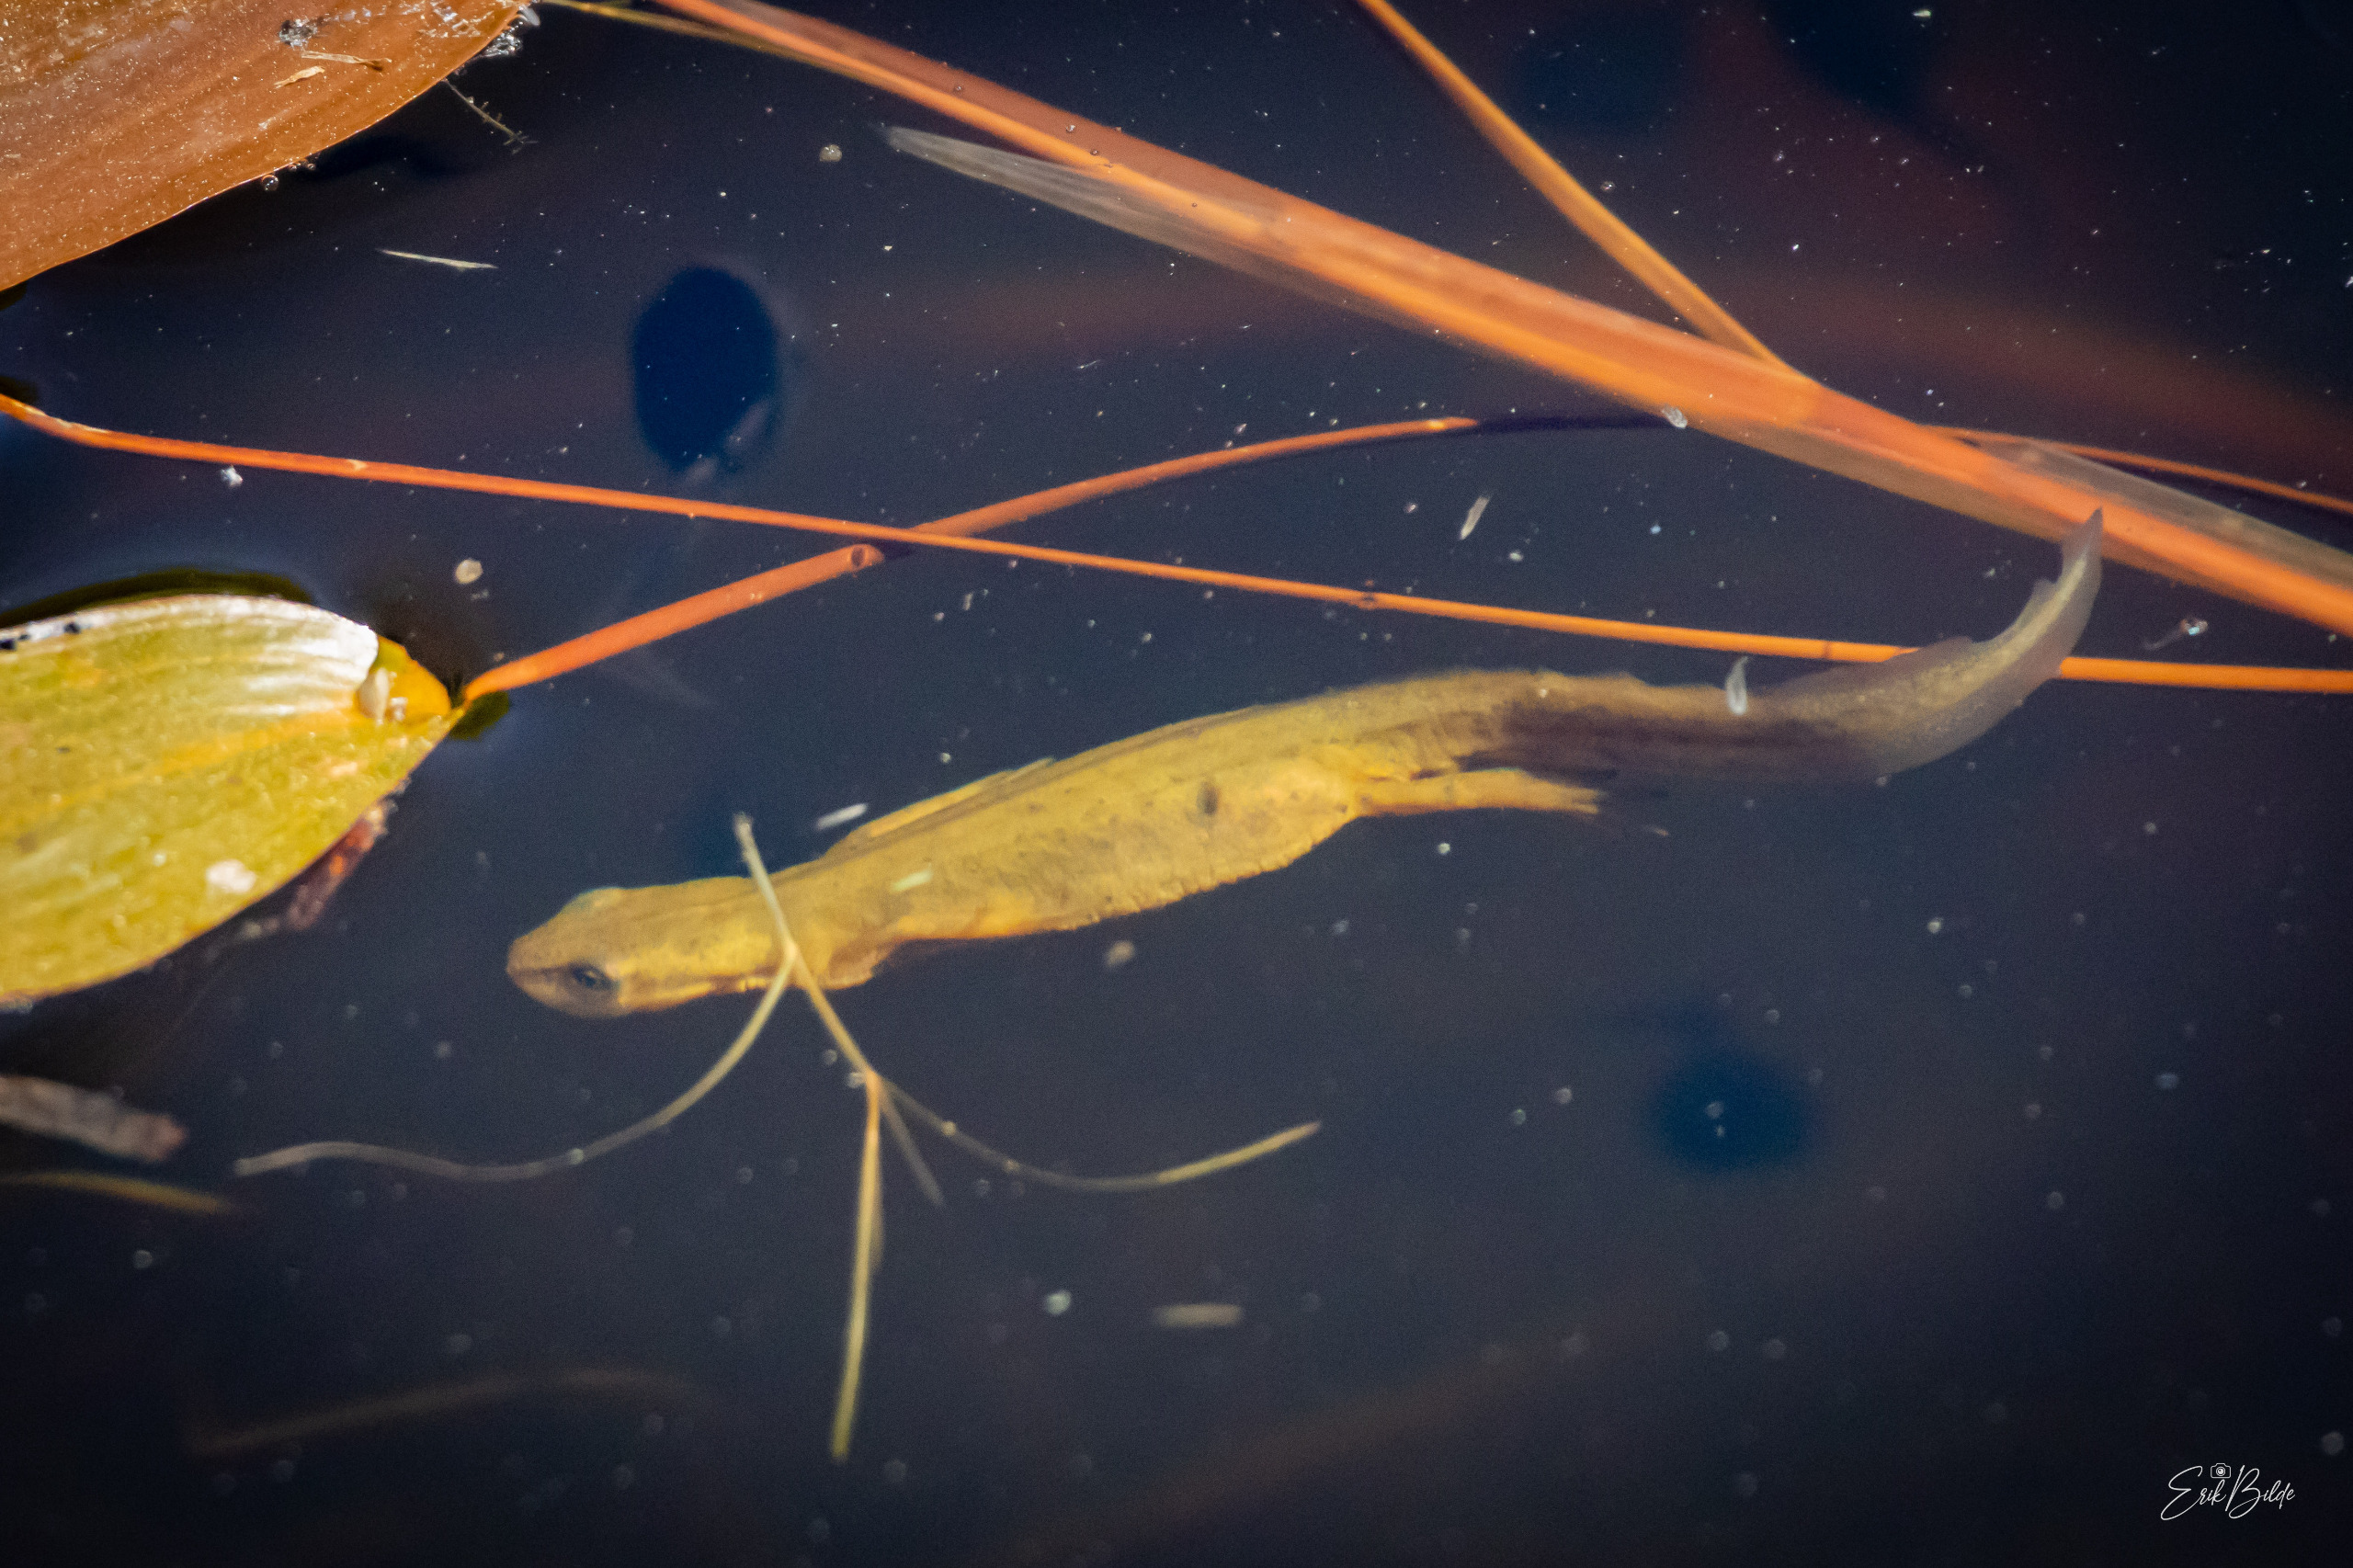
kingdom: Animalia
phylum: Chordata
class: Amphibia
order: Caudata
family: Salamandridae
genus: Lissotriton
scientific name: Lissotriton vulgaris
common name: Lille vandsalamander
